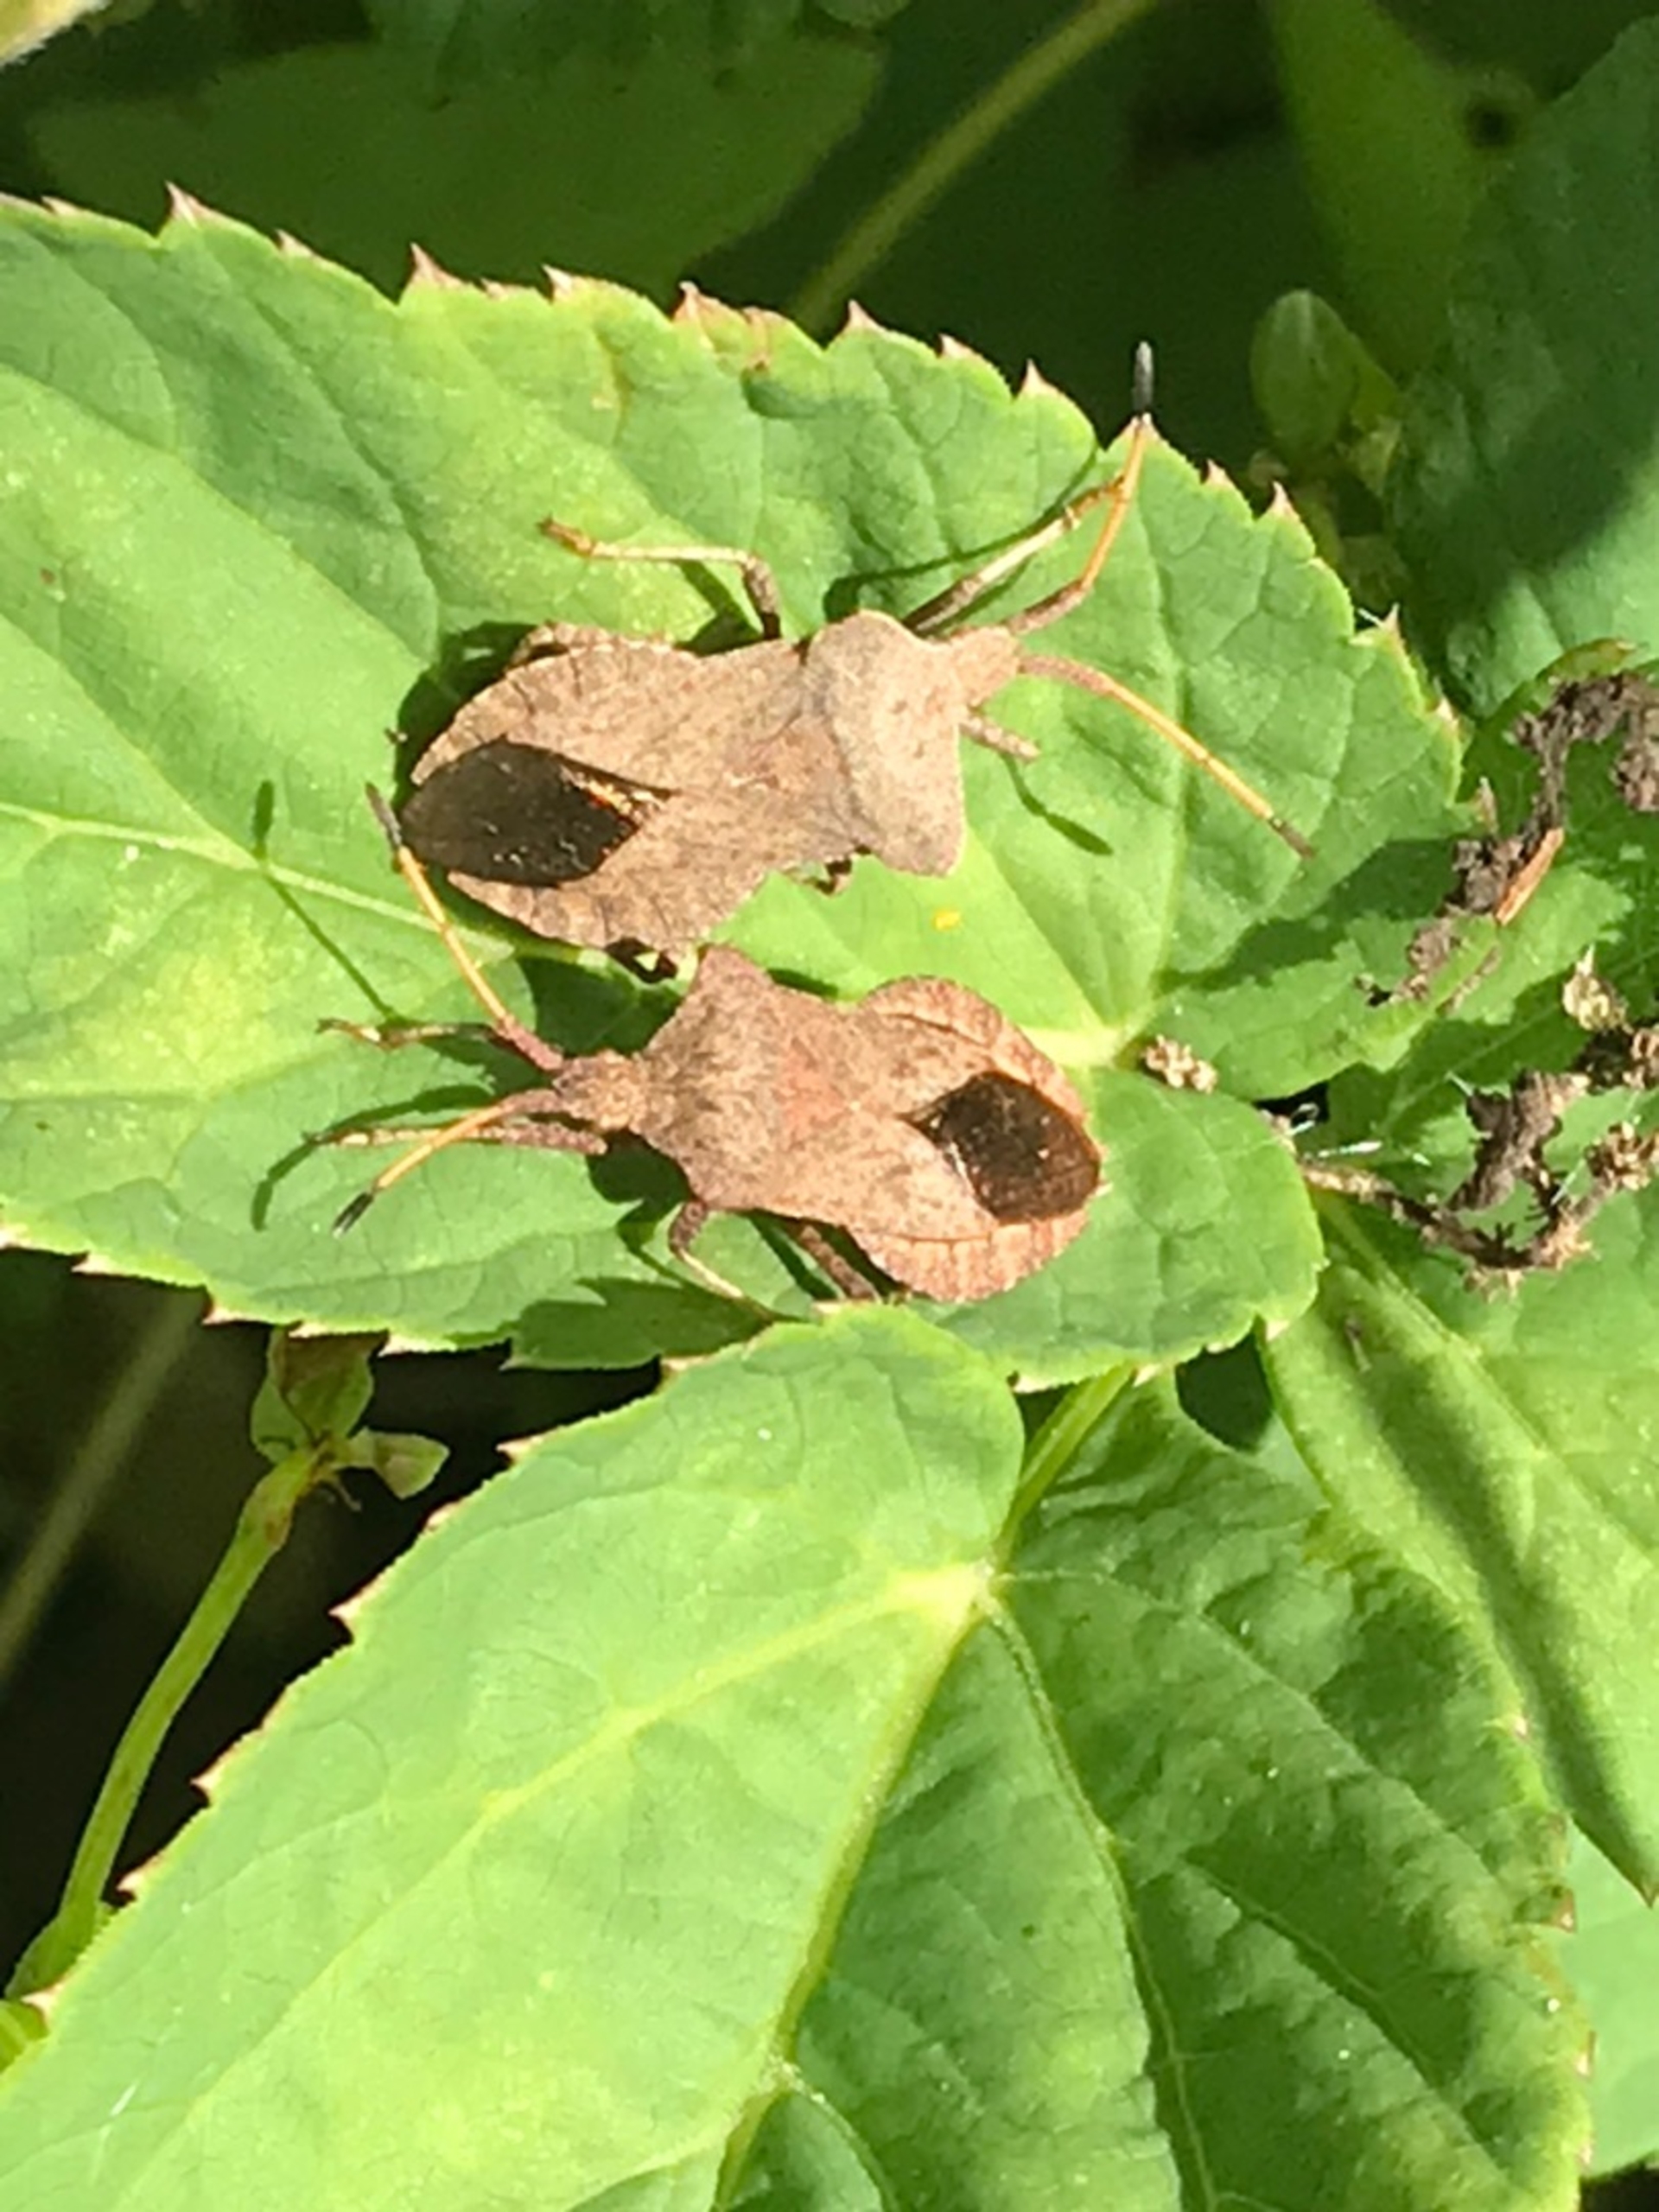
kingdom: Animalia
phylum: Arthropoda
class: Insecta
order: Hemiptera
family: Coreidae
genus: Coreus
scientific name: Coreus marginatus
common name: Skræppetæge
